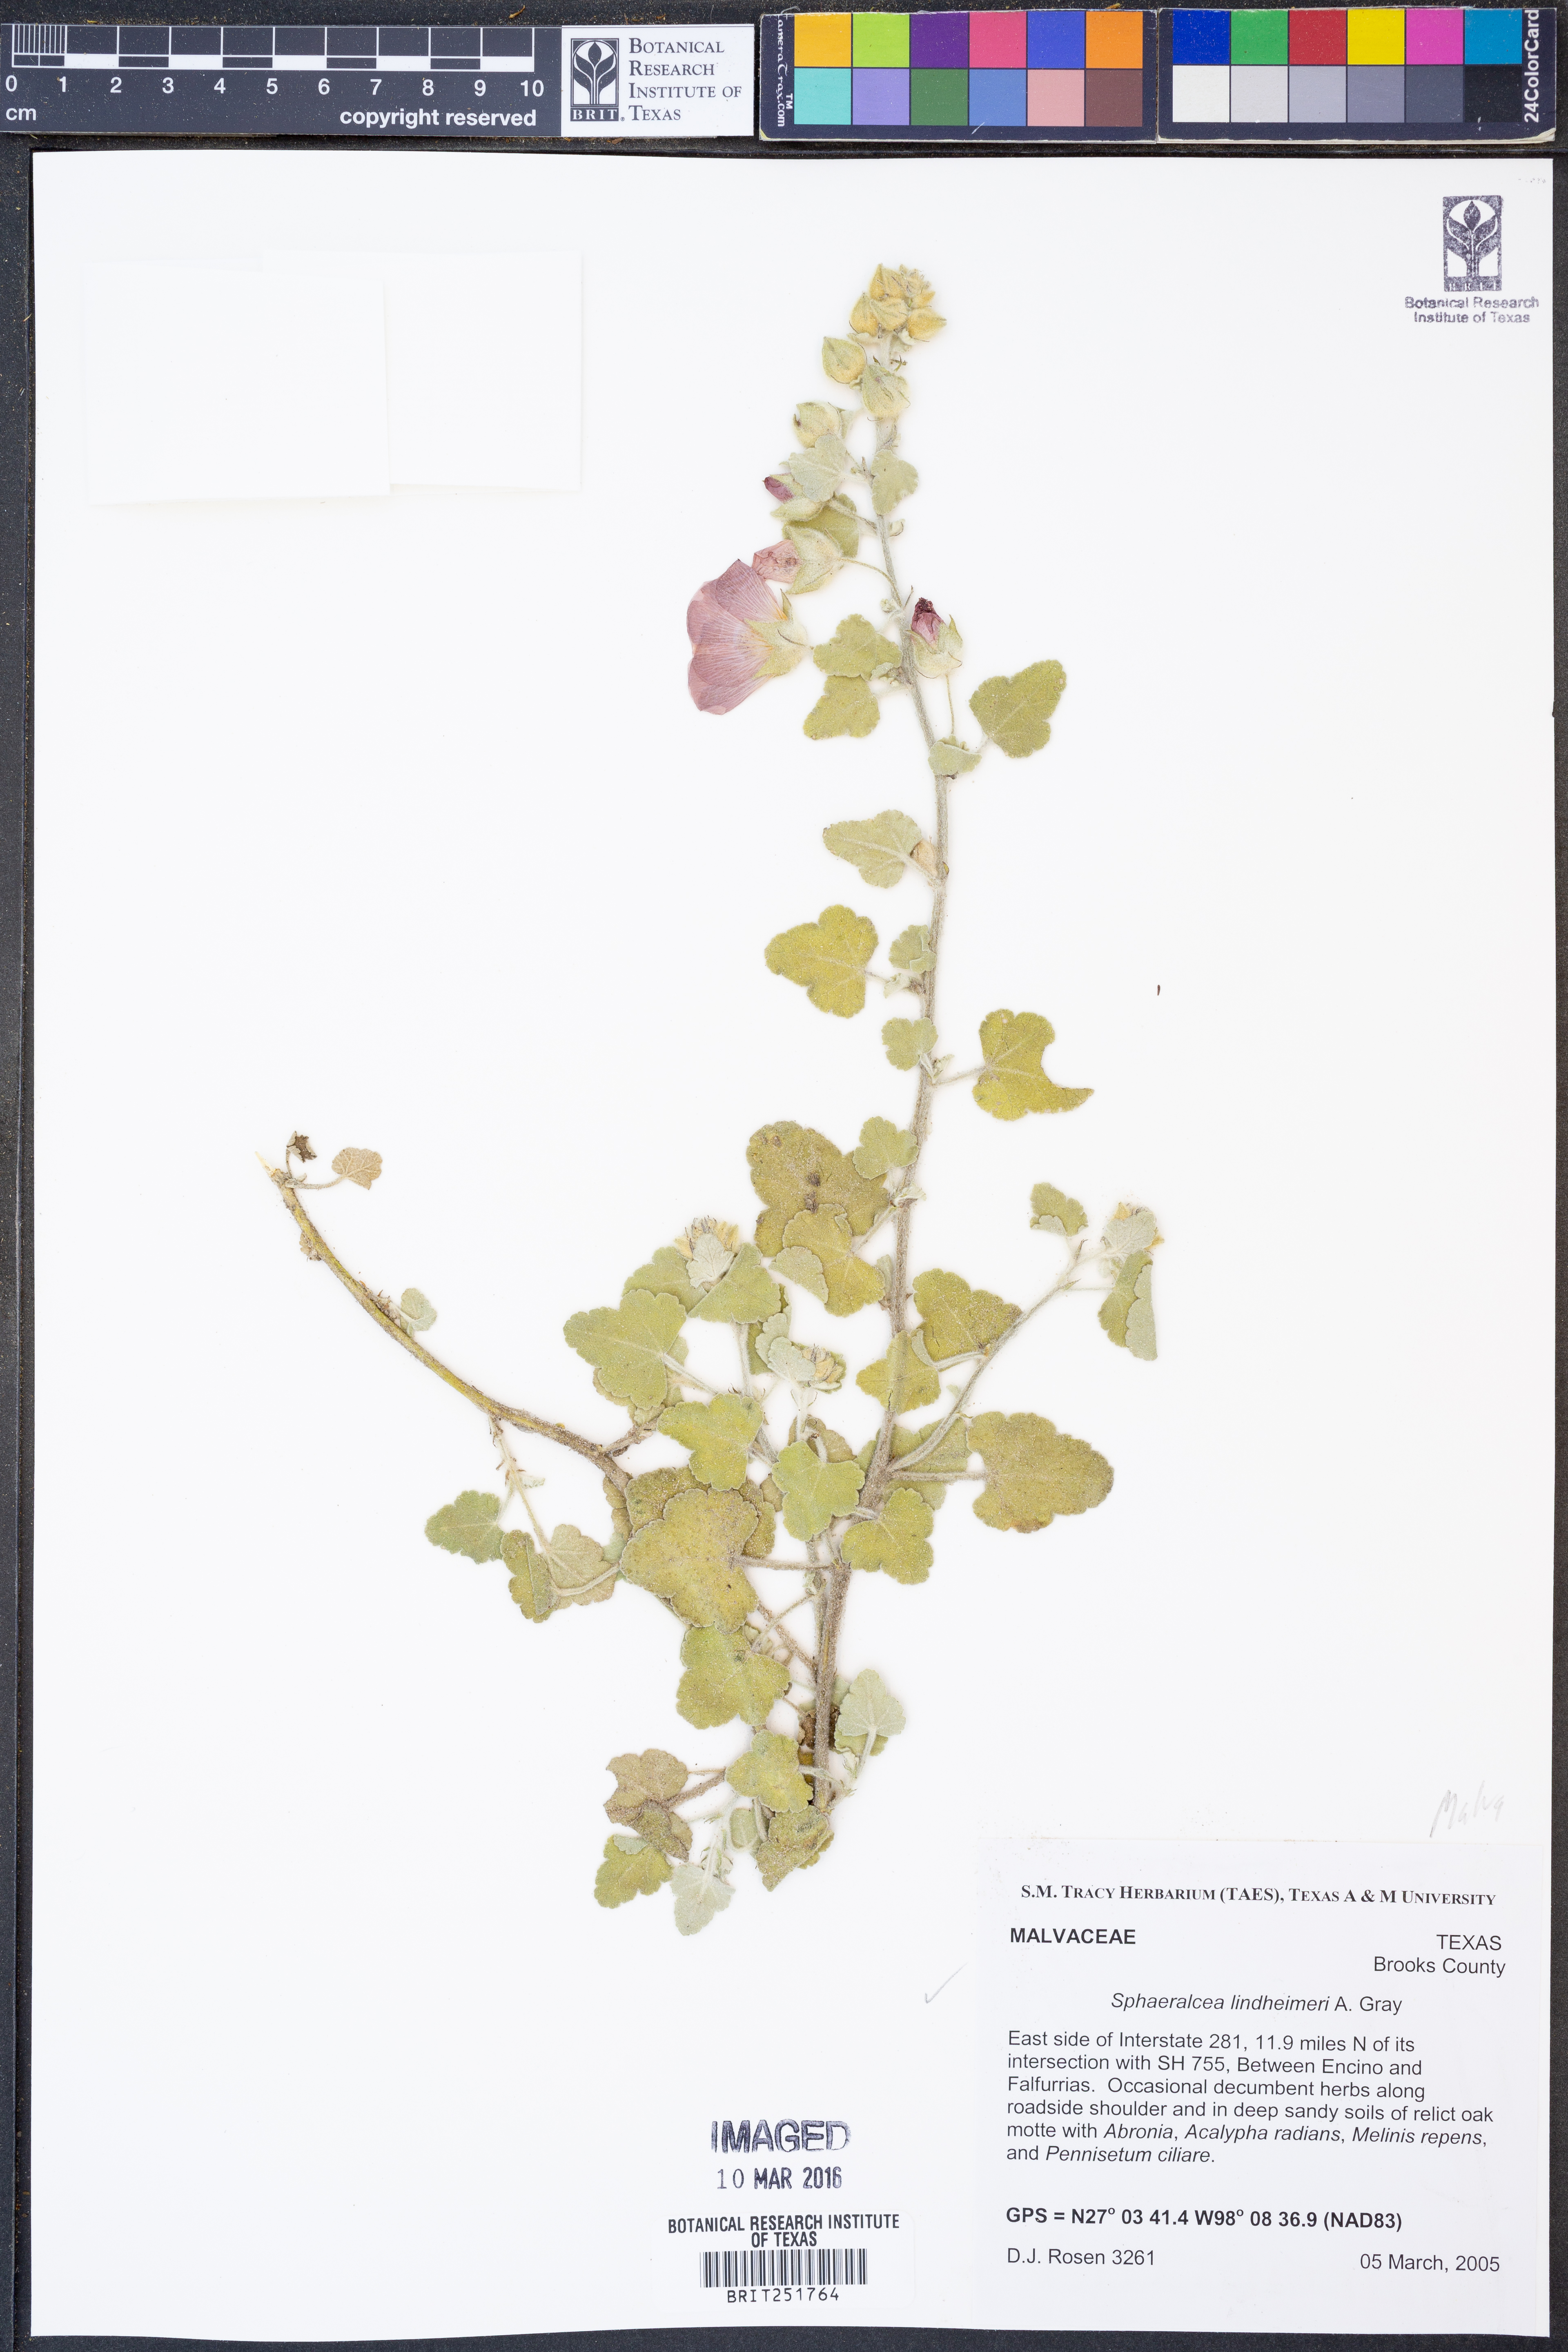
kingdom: Plantae
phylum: Tracheophyta
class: Magnoliopsida
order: Malvales
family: Malvaceae
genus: Sphaeralcea
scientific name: Sphaeralcea lindheimeri
